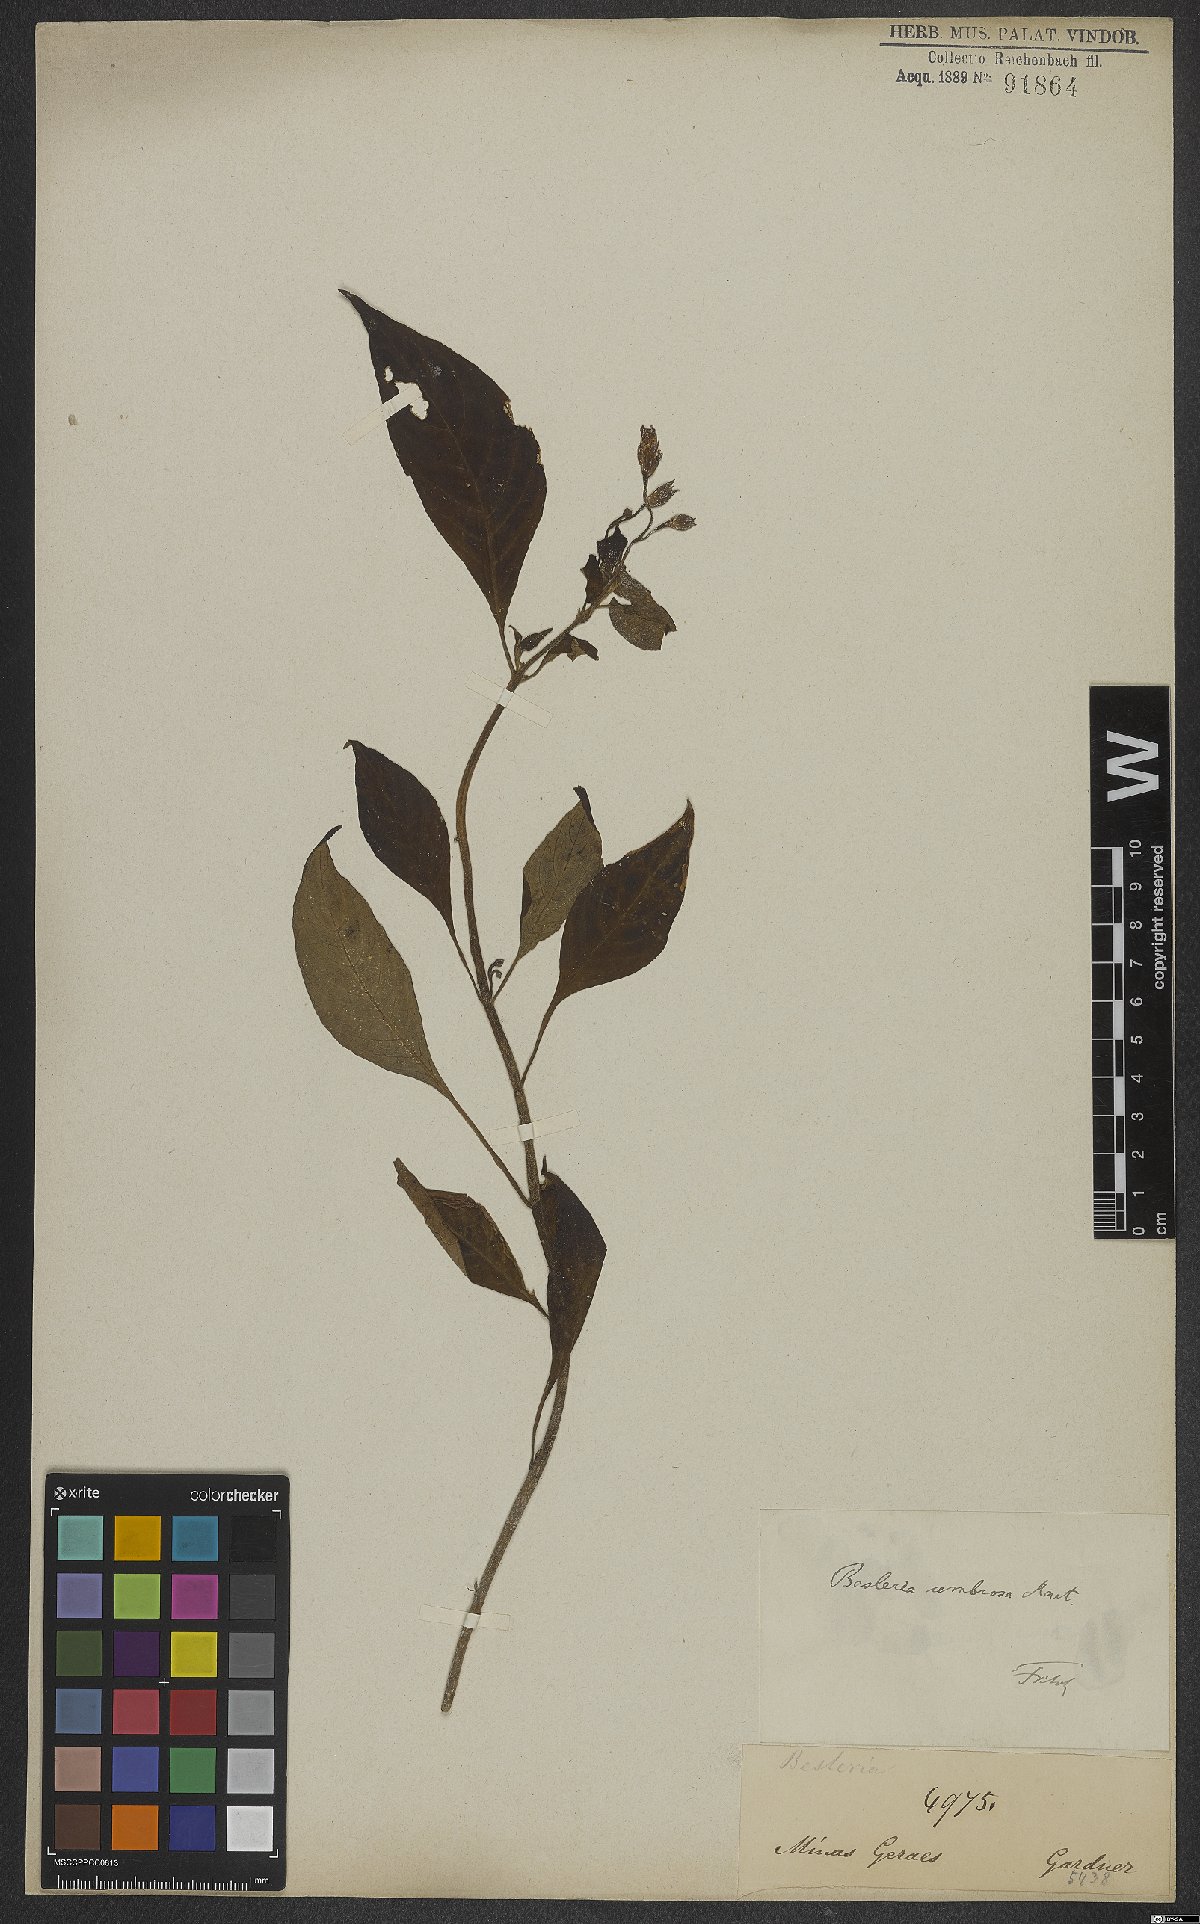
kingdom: Plantae
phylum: Tracheophyta
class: Magnoliopsida
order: Lamiales
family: Gesneriaceae
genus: Besleria
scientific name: Besleria umbrosa
